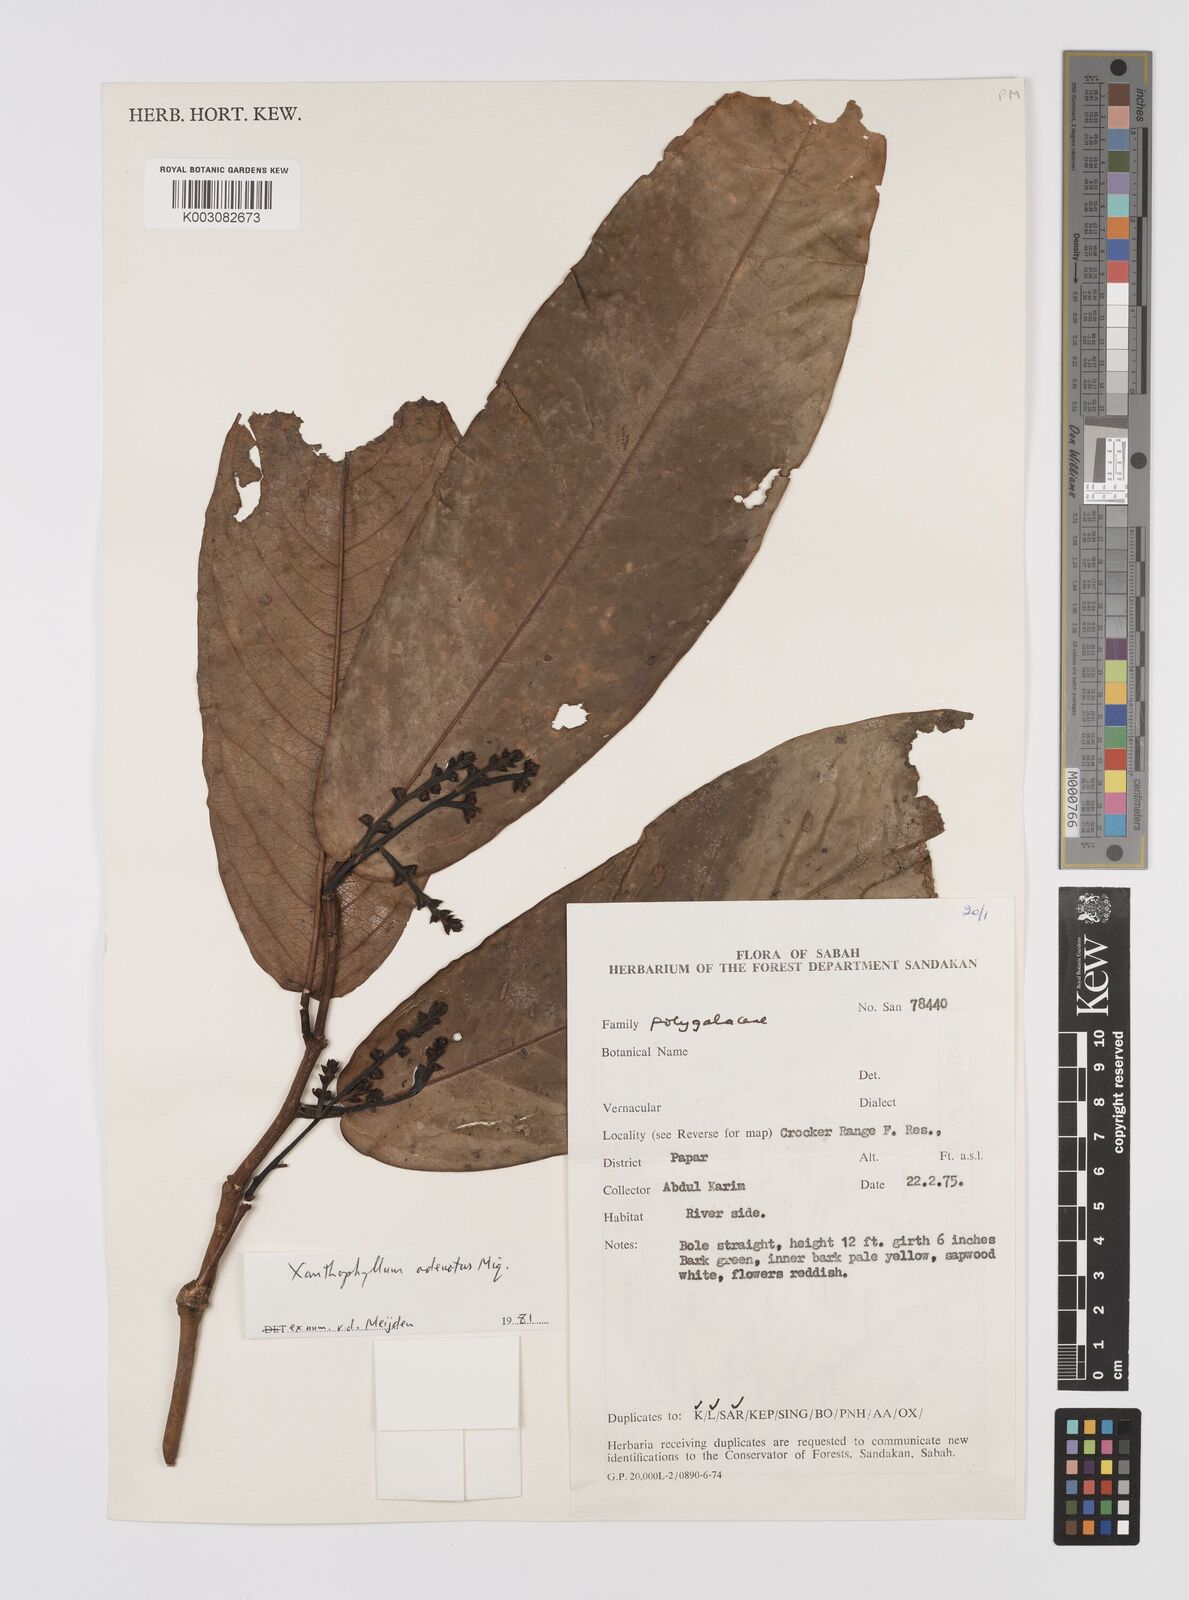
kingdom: Plantae
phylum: Tracheophyta
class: Magnoliopsida
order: Fabales
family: Polygalaceae
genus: Xanthophyllum
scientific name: Xanthophyllum adenotus
